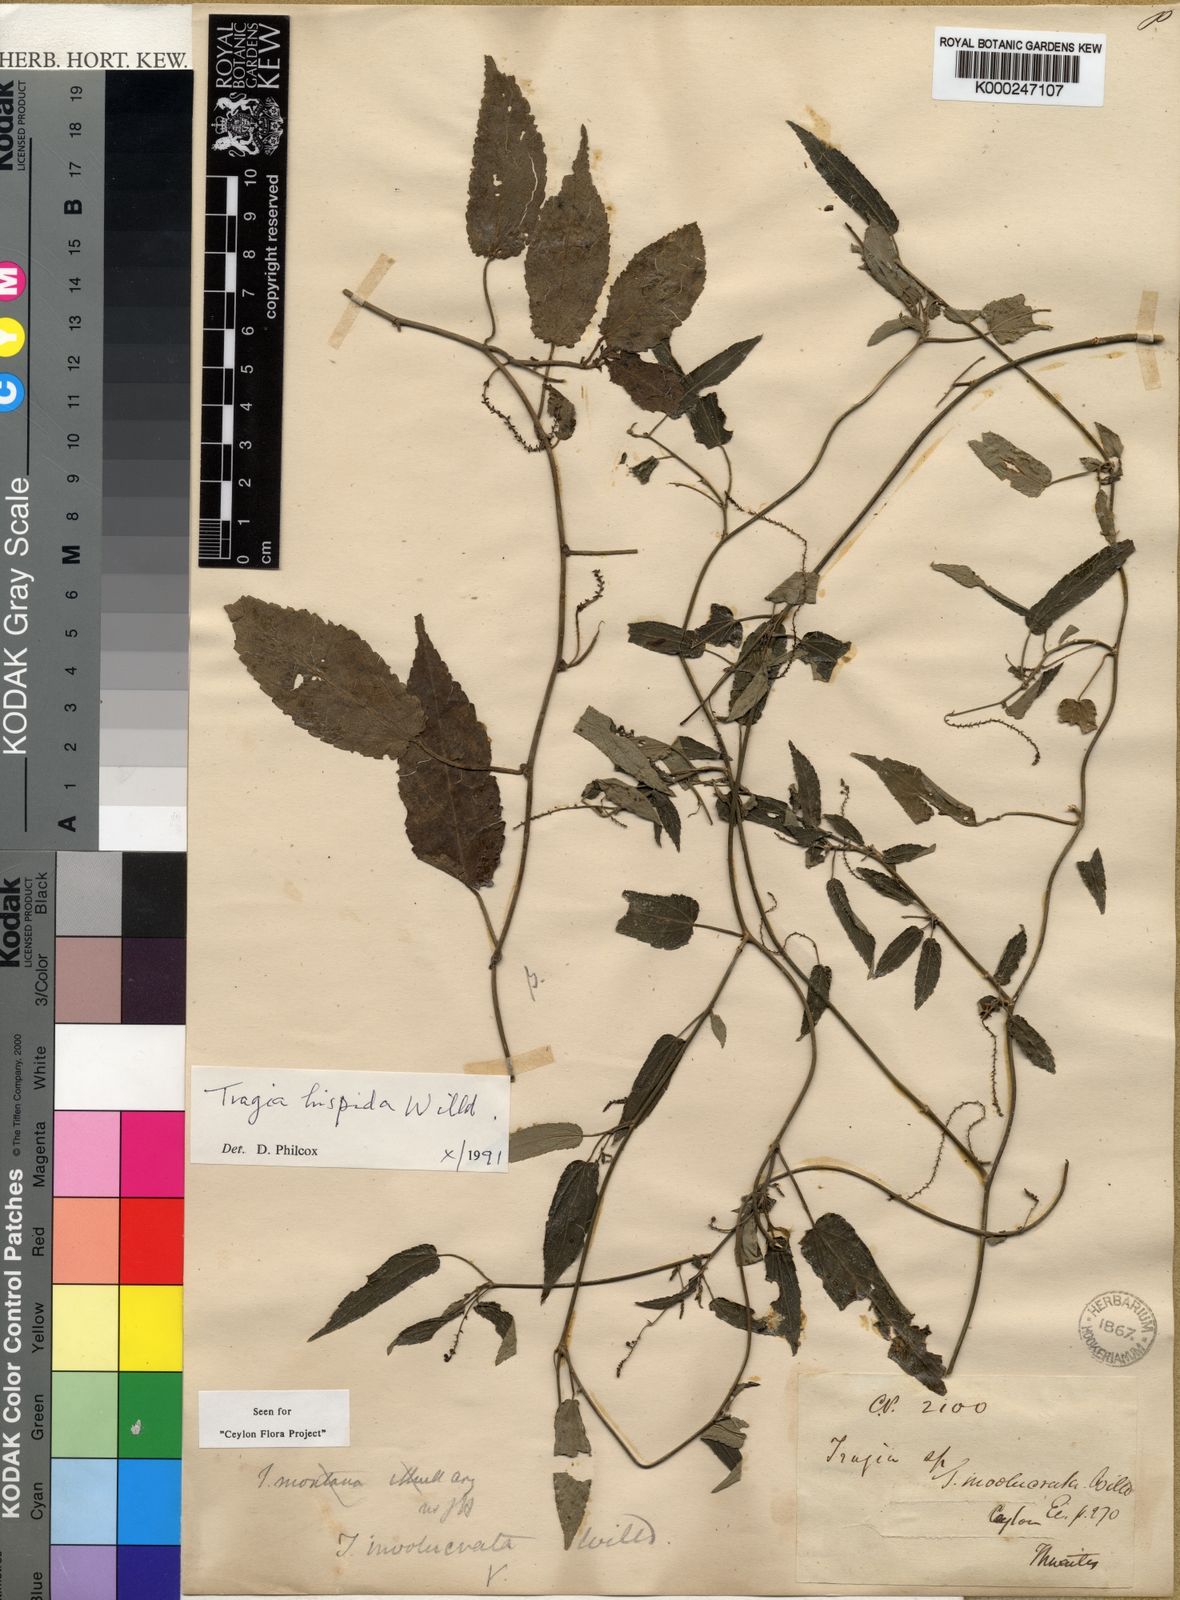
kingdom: Plantae
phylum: Tracheophyta
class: Magnoliopsida
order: Malpighiales
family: Euphorbiaceae
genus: Tragia
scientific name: Tragia hispida
